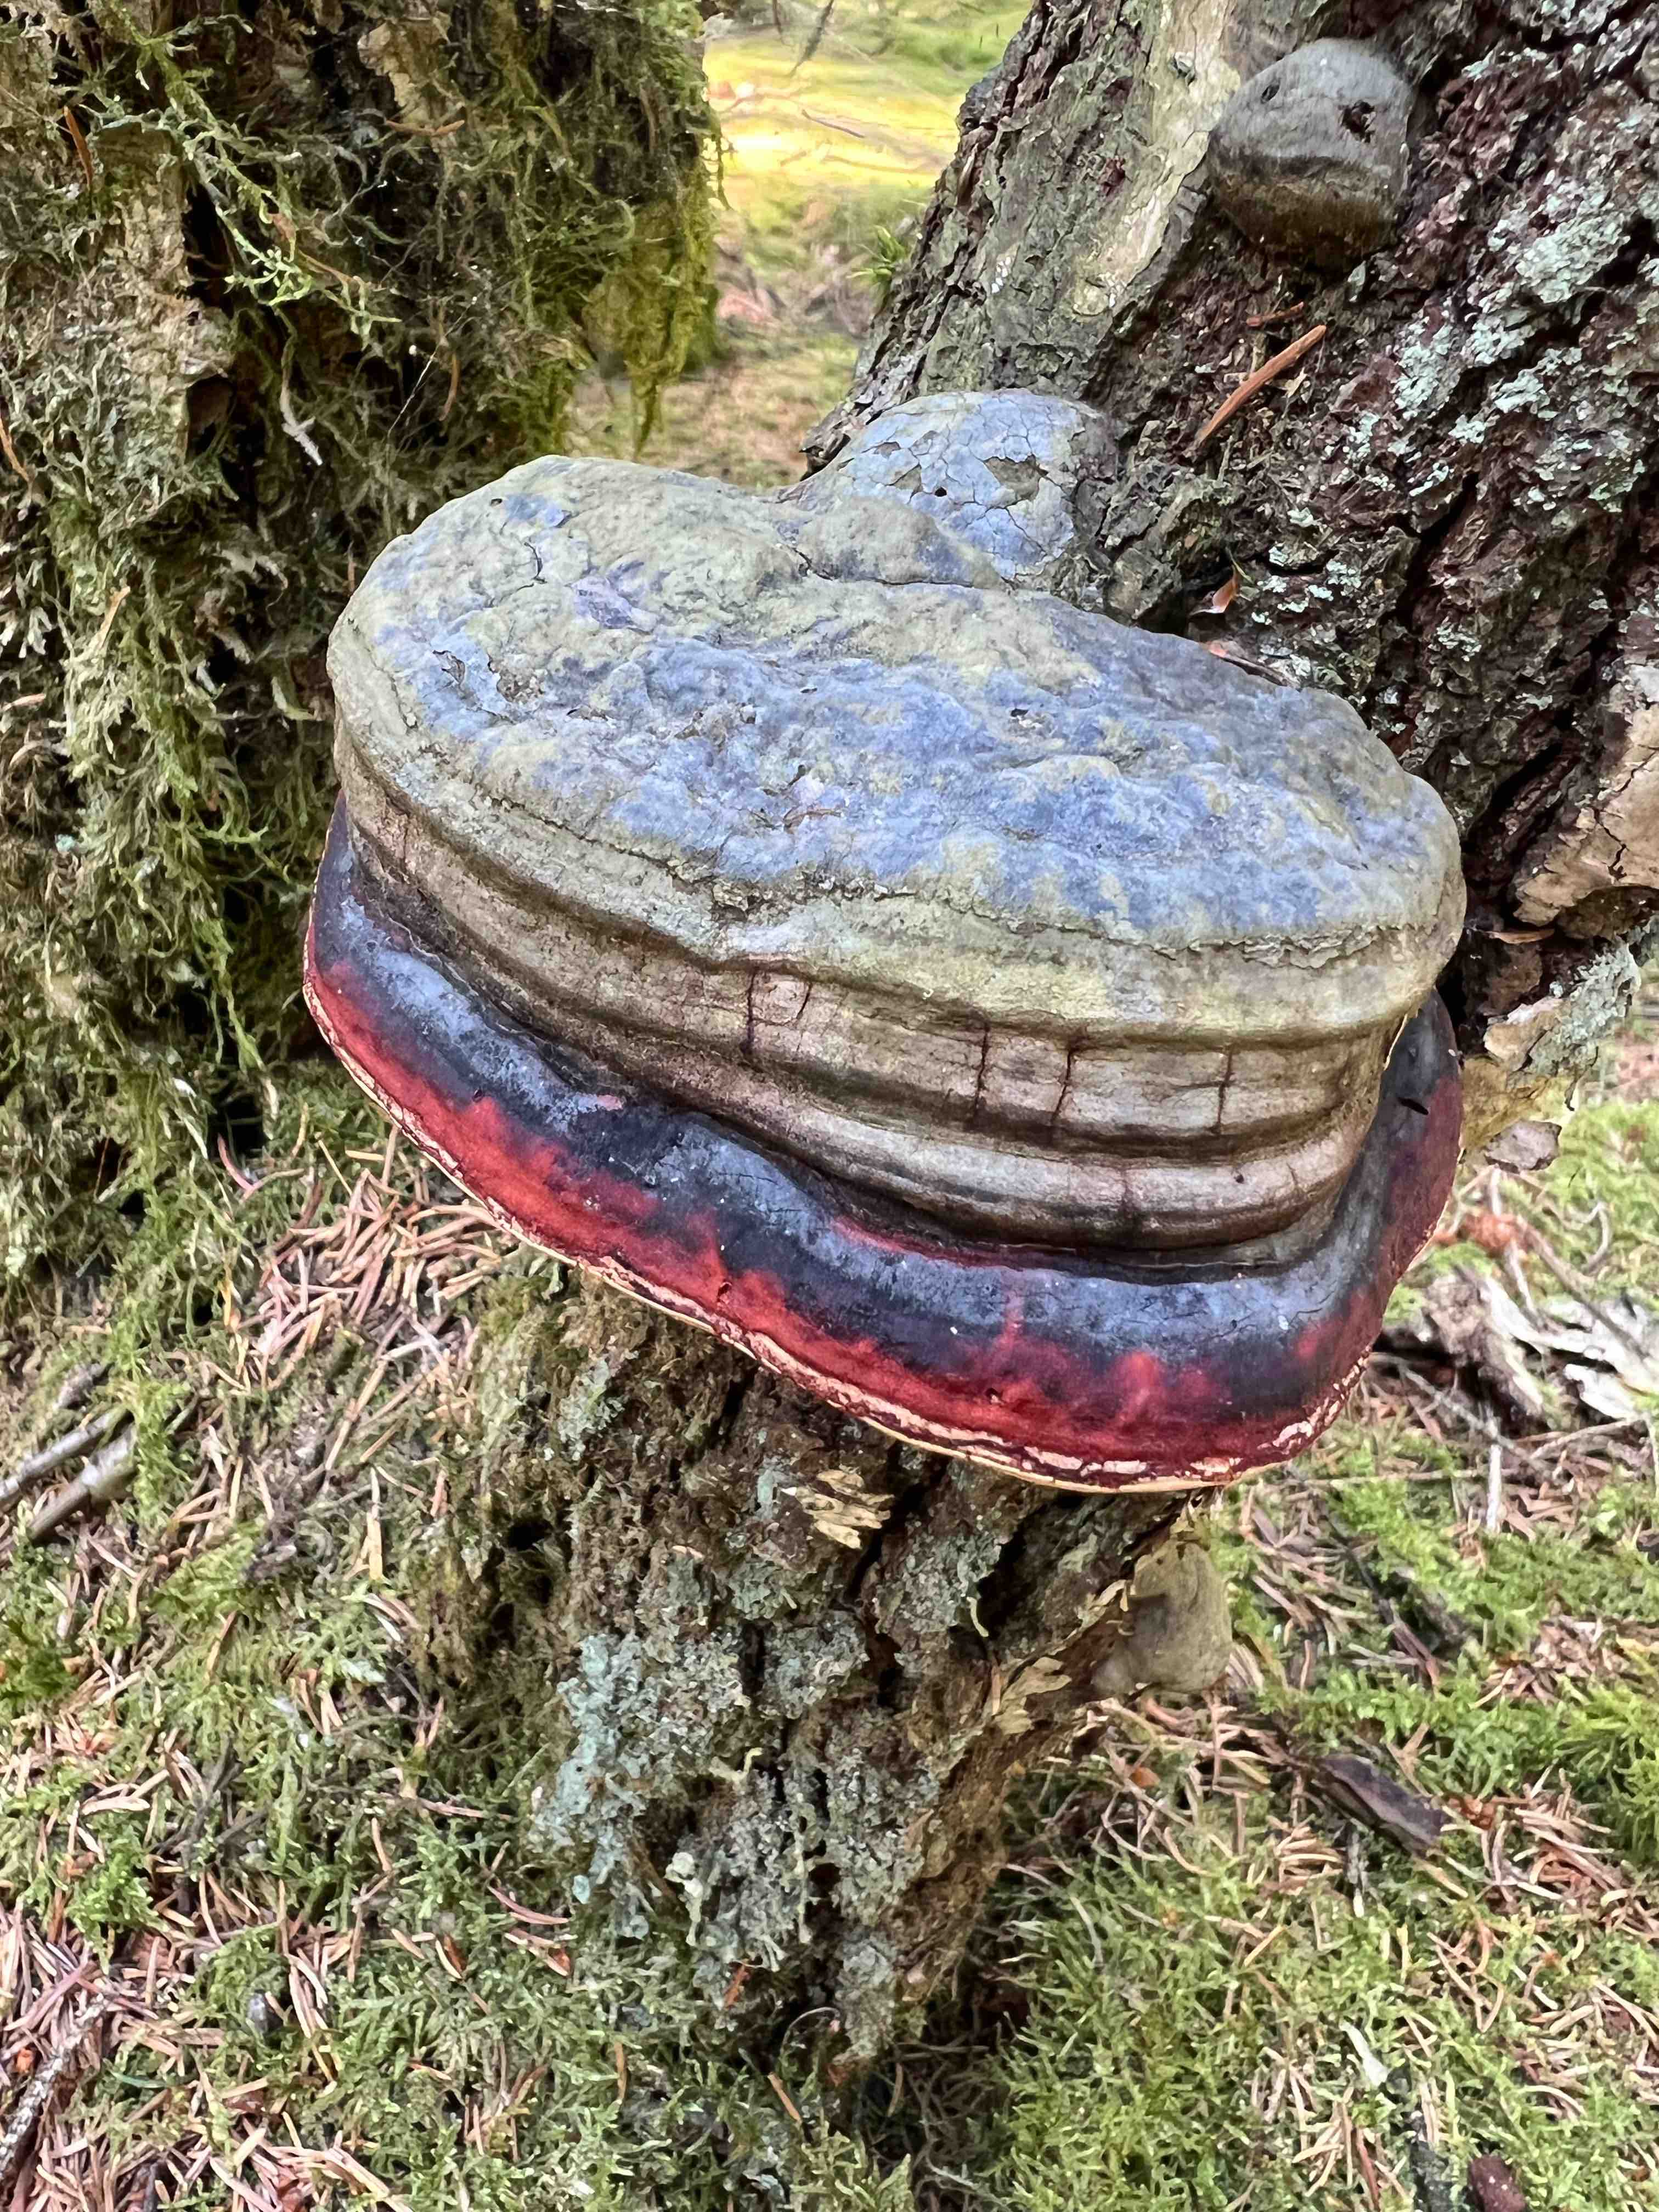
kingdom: Fungi
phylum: Basidiomycota
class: Agaricomycetes
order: Polyporales
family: Fomitopsidaceae
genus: Fomitopsis
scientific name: Fomitopsis pinicola
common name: randbæltet hovporesvamp
